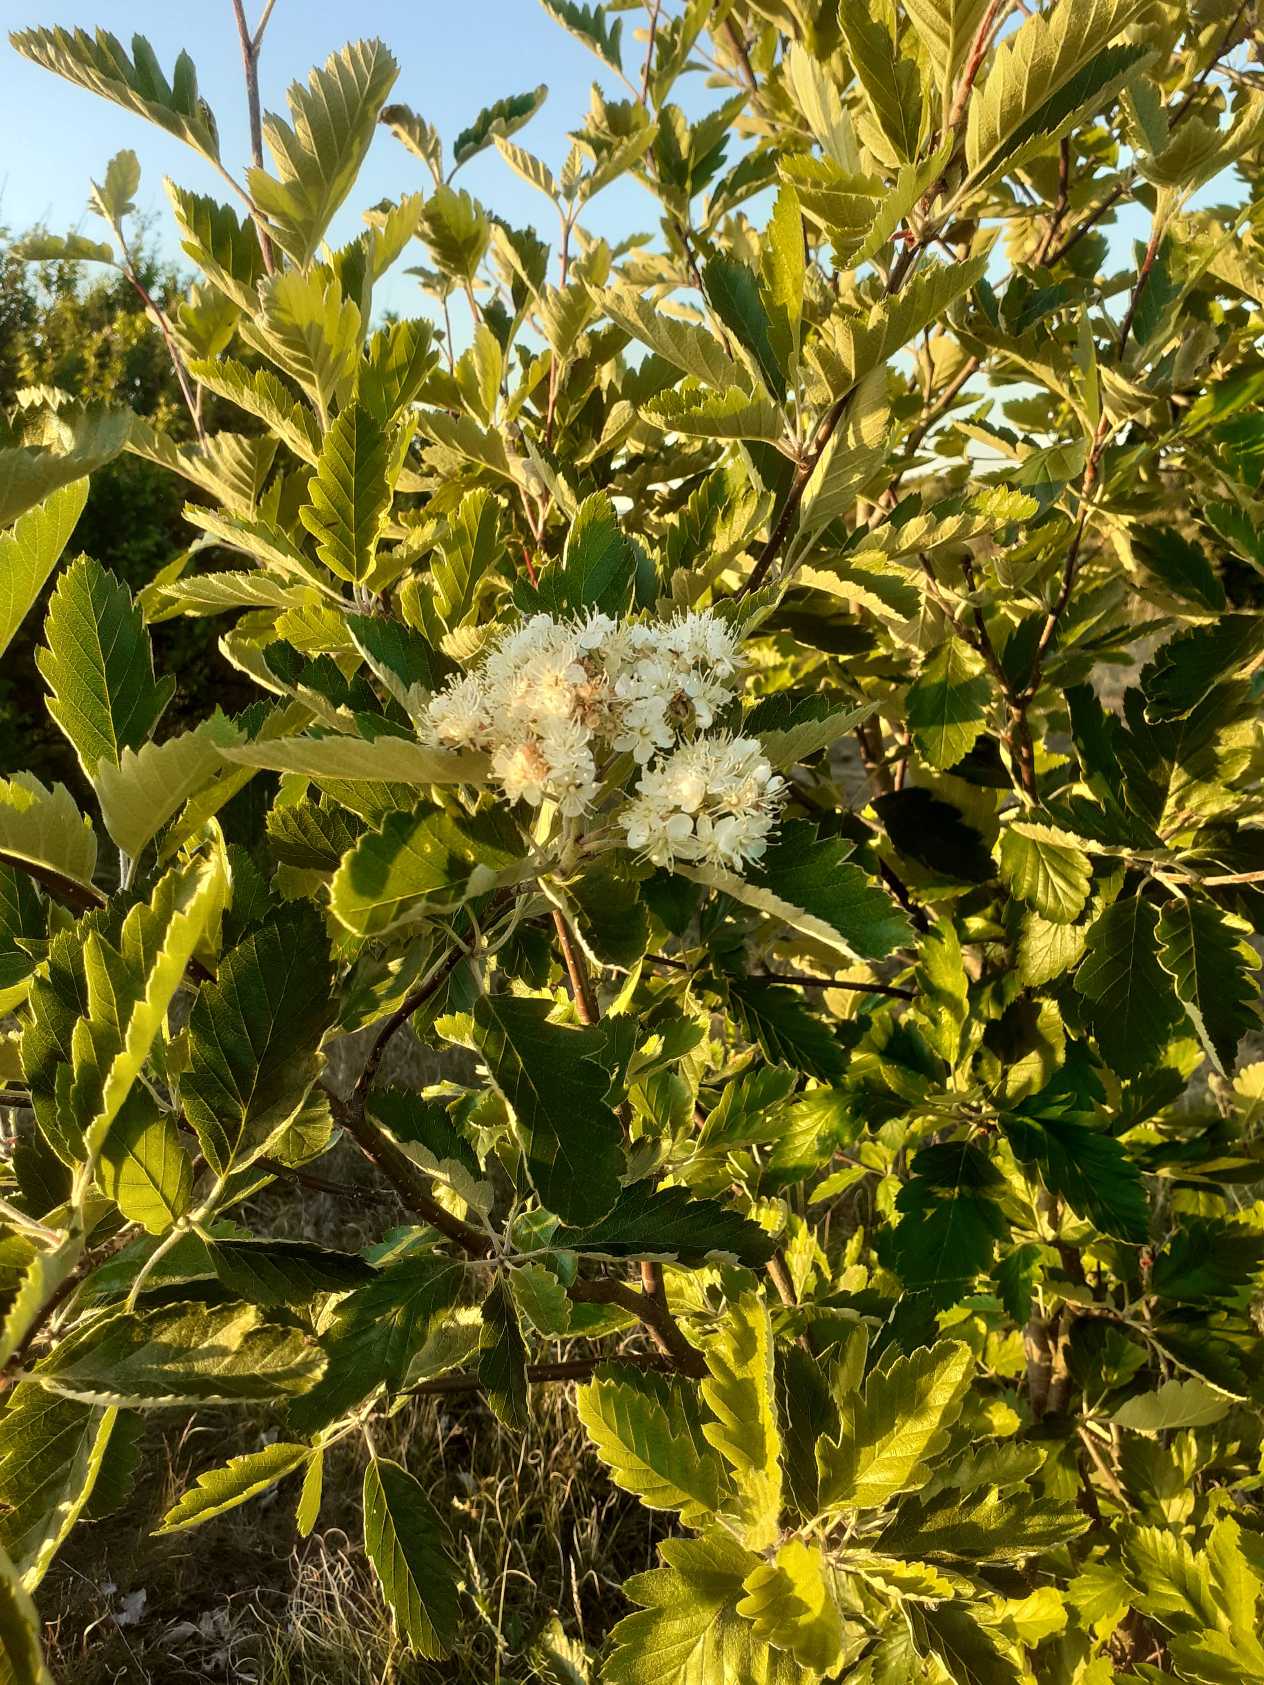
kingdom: Plantae
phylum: Tracheophyta
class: Magnoliopsida
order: Rosales
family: Rosaceae
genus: Scandosorbus
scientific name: Scandosorbus intermedia
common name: Selje-røn
